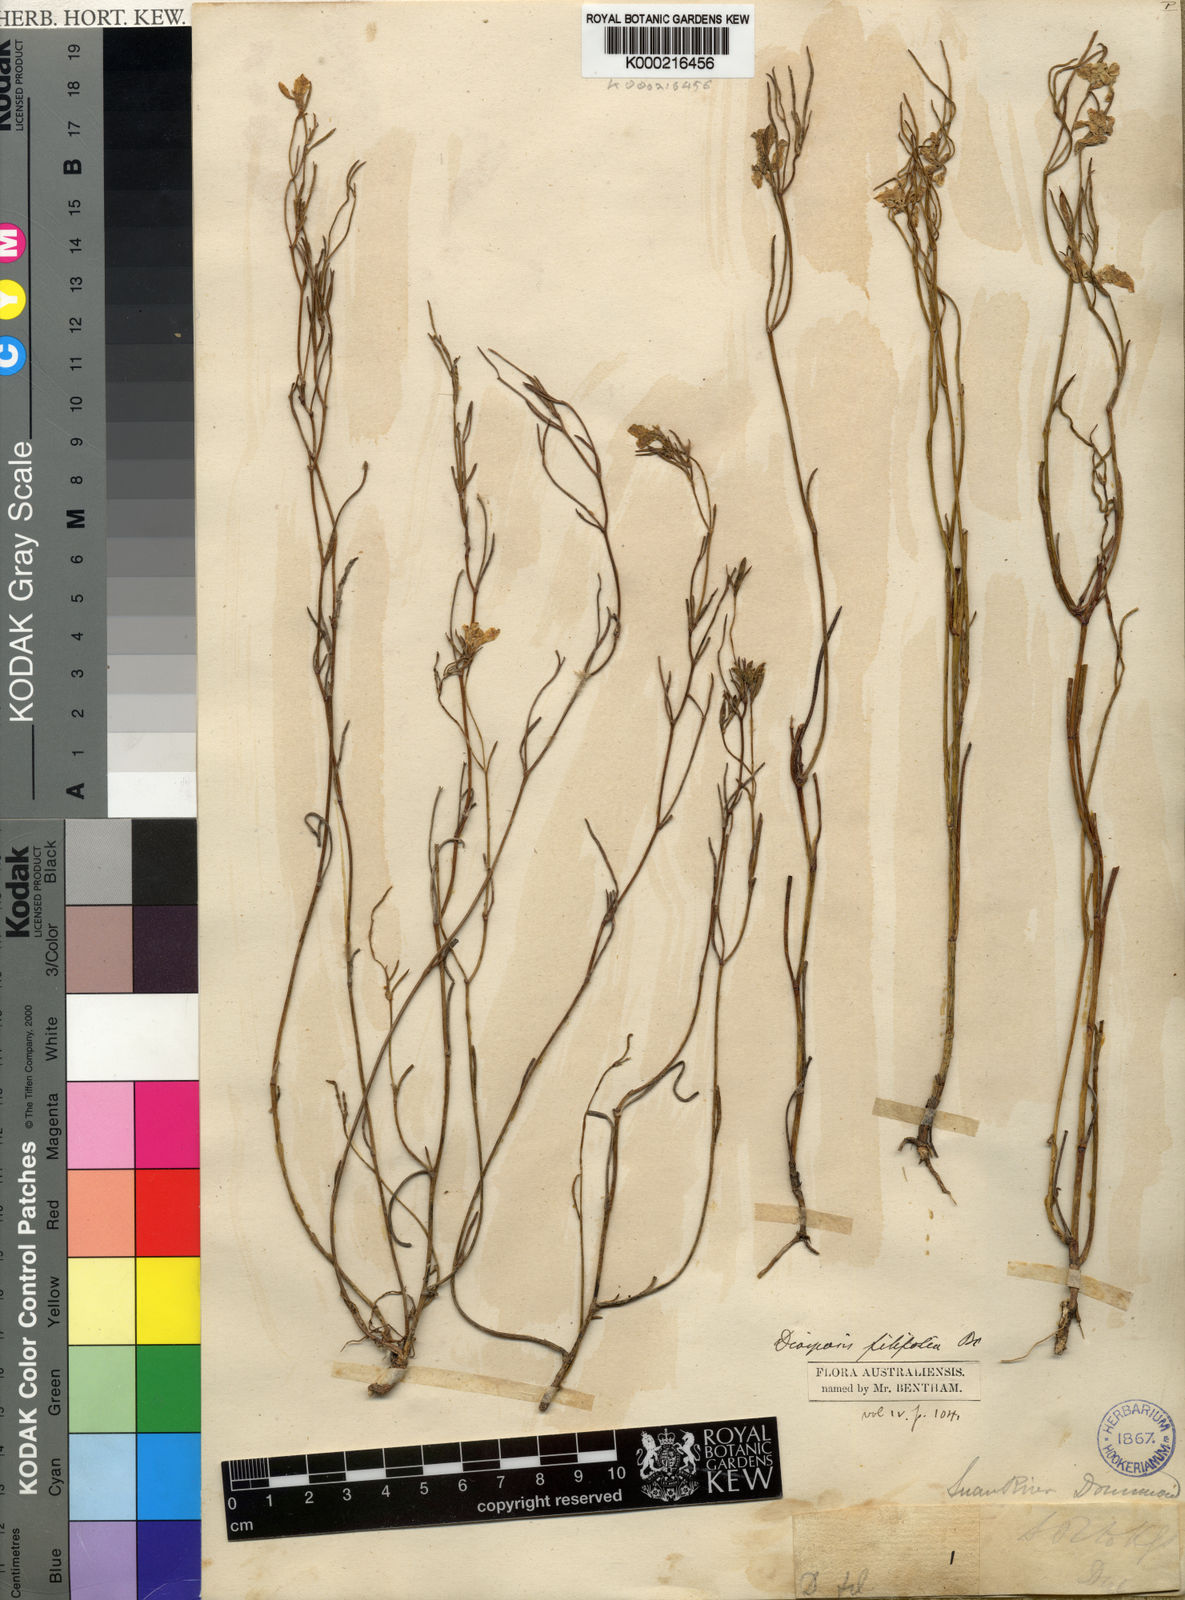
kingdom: Plantae
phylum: Tracheophyta
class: Magnoliopsida
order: Asterales
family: Goodeniaceae
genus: Scaevola
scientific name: Scaevola filifolia
